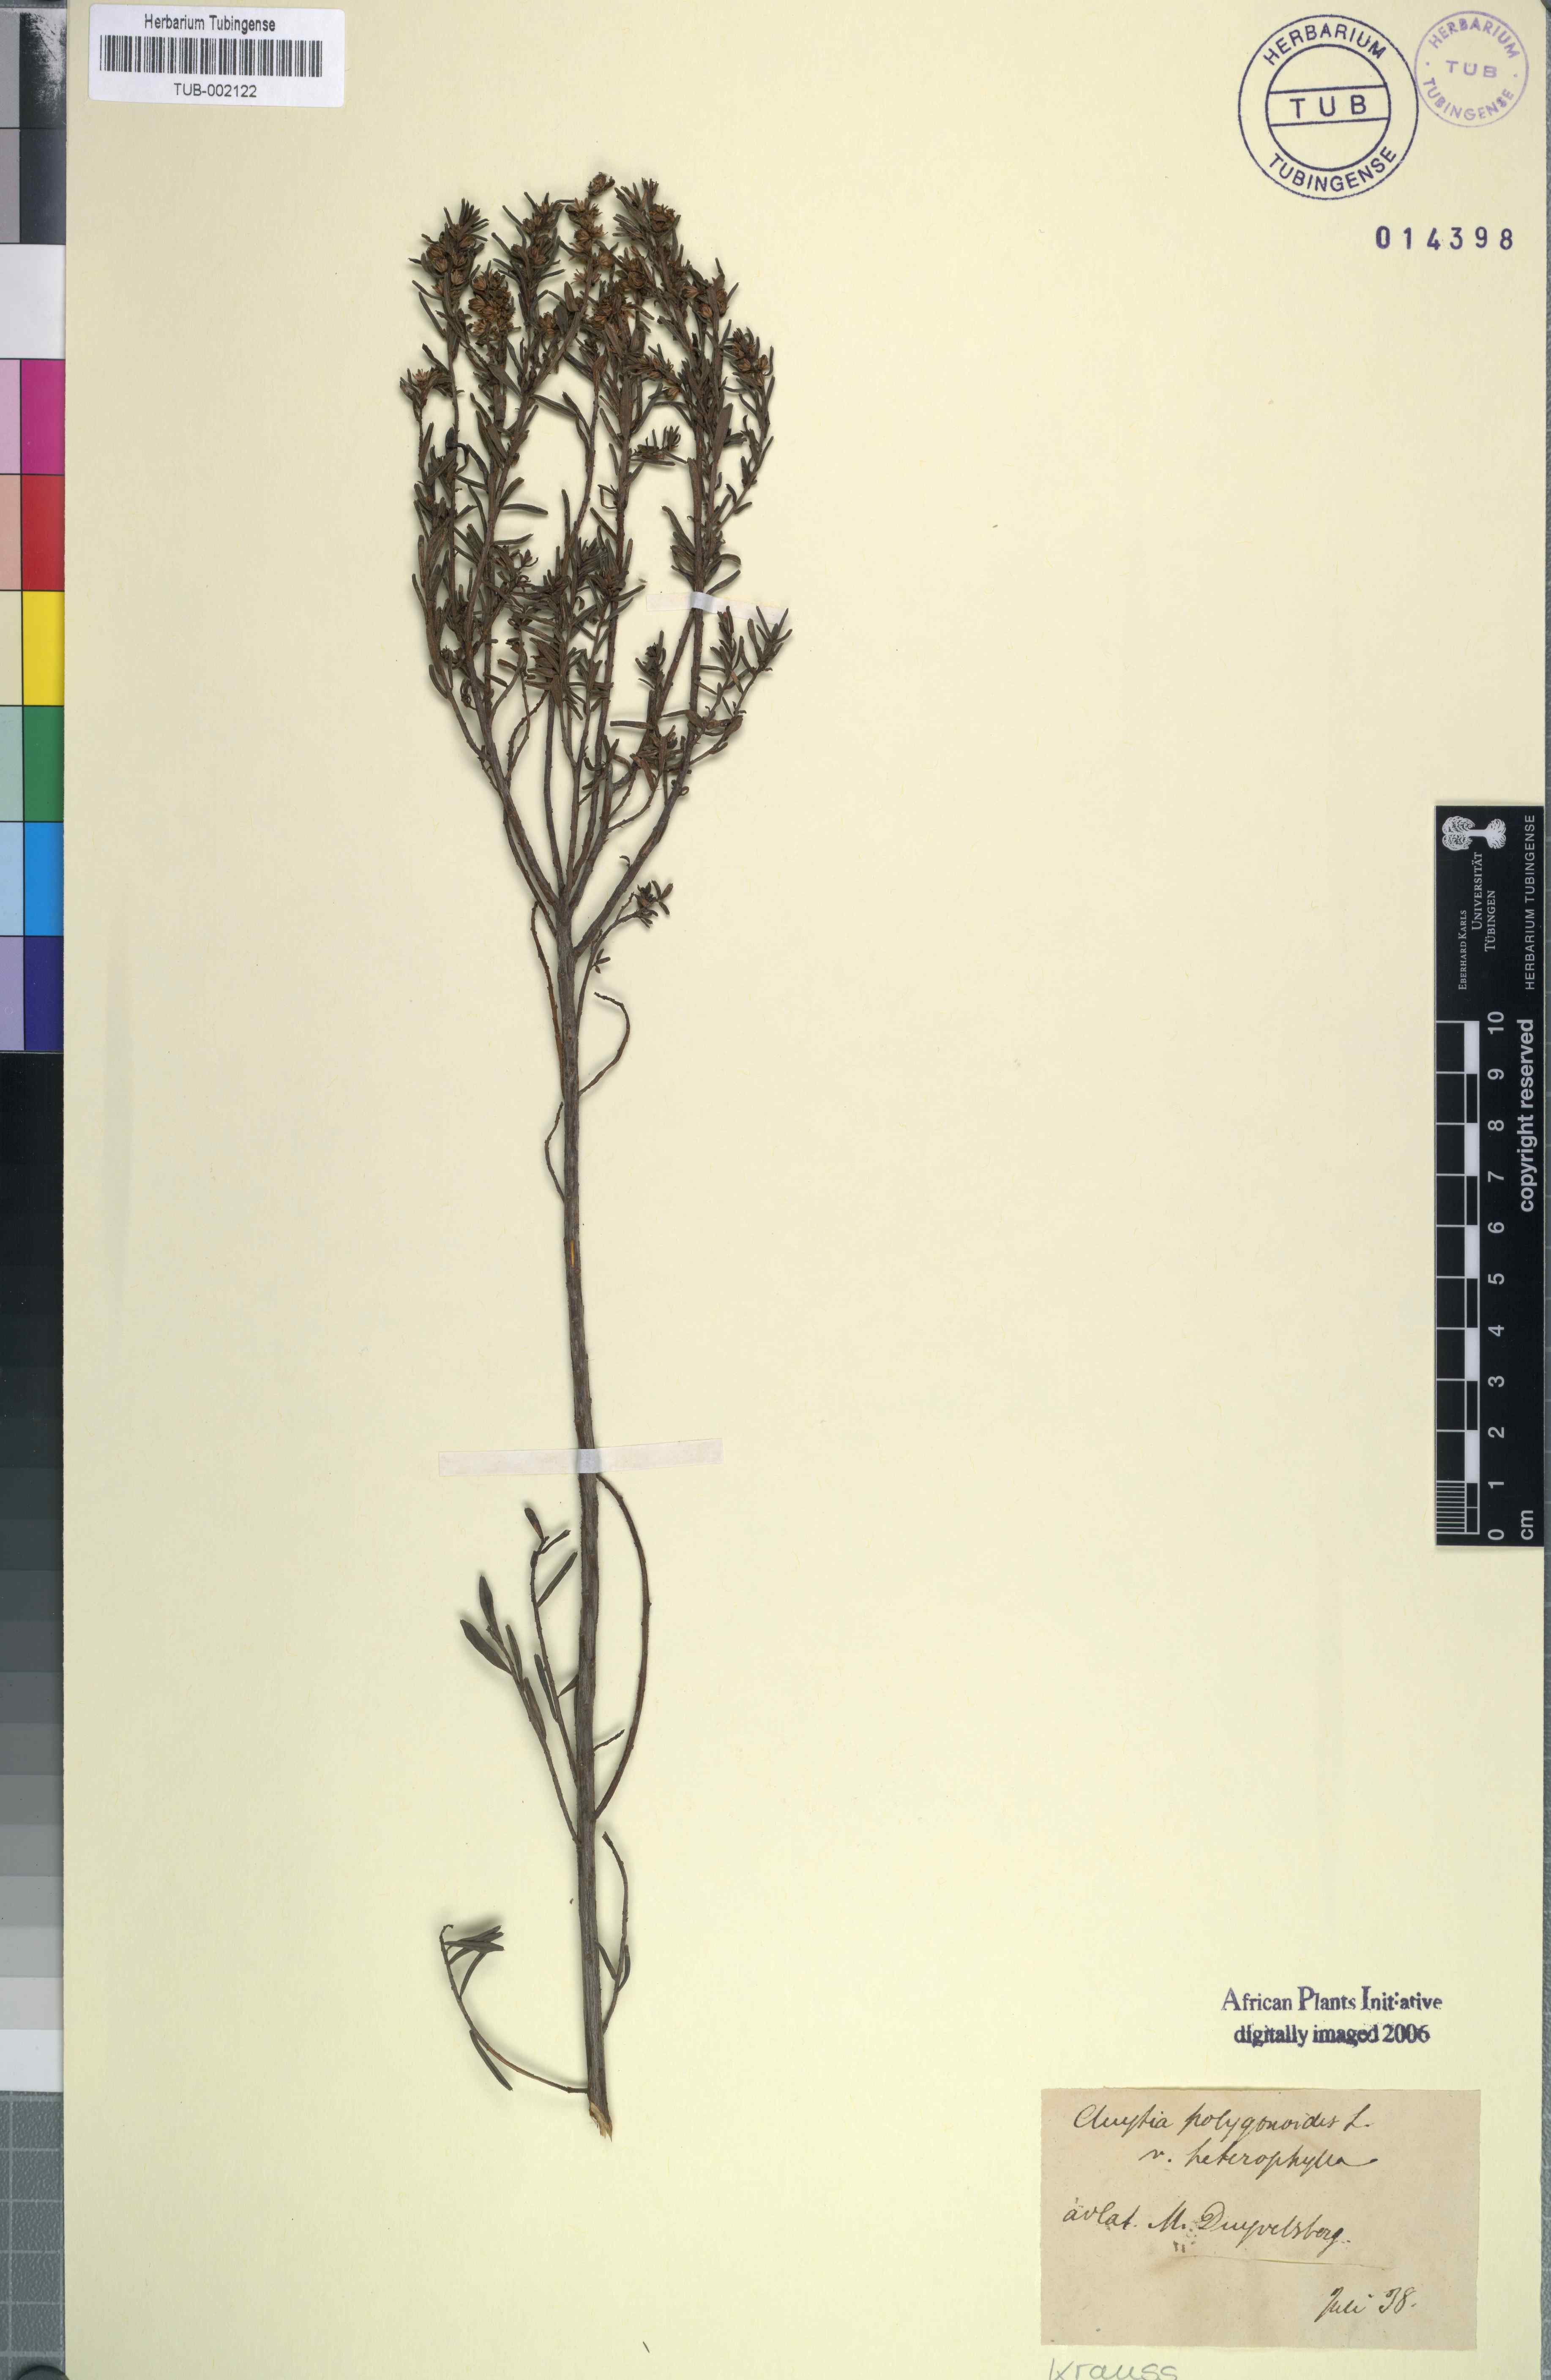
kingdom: Plantae
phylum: Tracheophyta
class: Magnoliopsida
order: Malpighiales
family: Peraceae
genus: Clutia
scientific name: Clutia polygonoides
